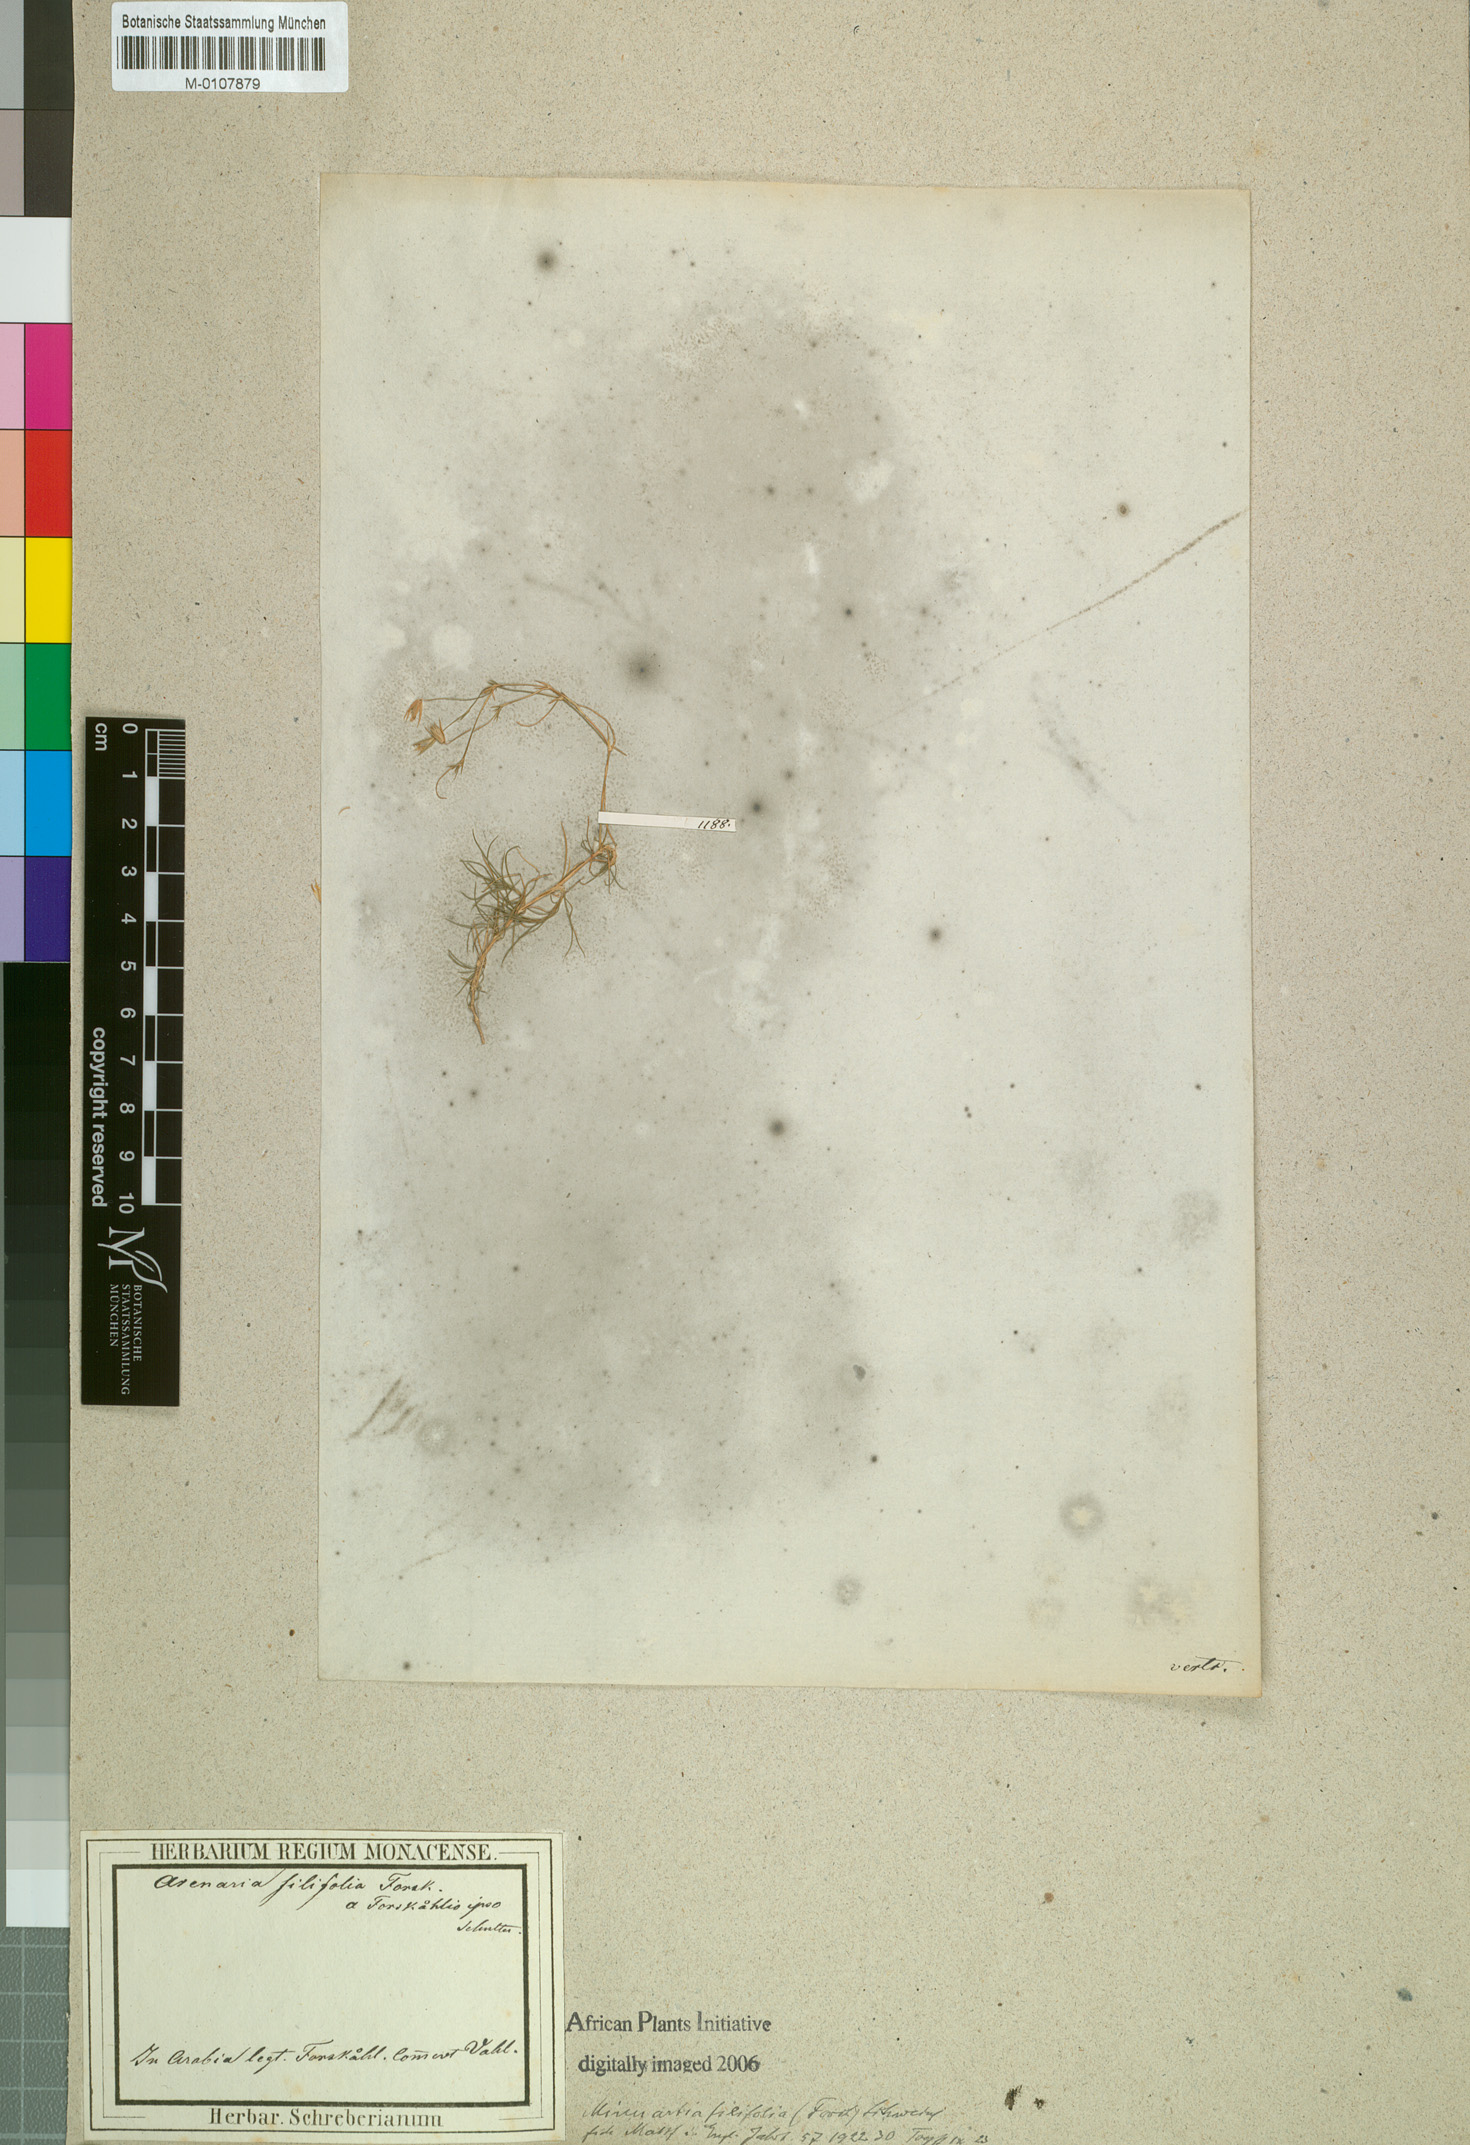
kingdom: Plantae
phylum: Tracheophyta
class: Magnoliopsida
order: Caryophyllales
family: Caryophyllaceae
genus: Minuartia
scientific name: Minuartia filifolia
